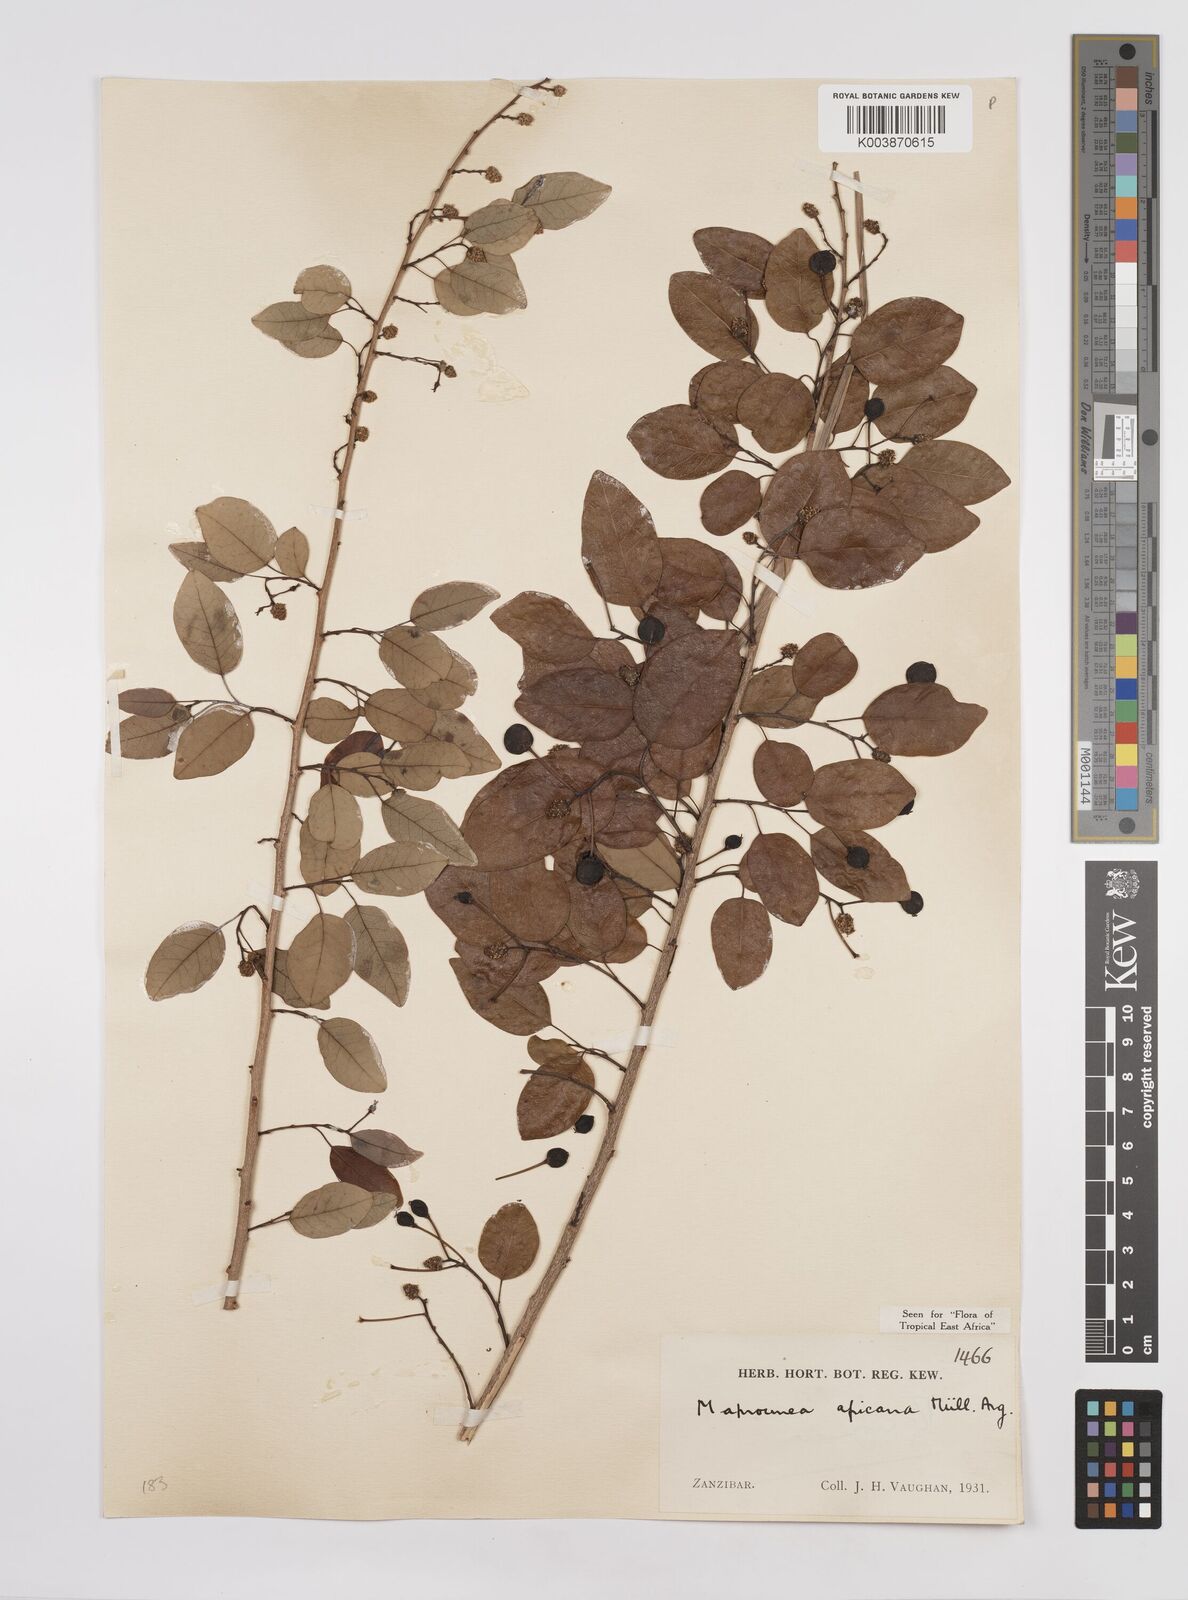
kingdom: Plantae
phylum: Tracheophyta
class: Magnoliopsida
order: Malpighiales
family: Euphorbiaceae
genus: Maprounea
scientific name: Maprounea africana
